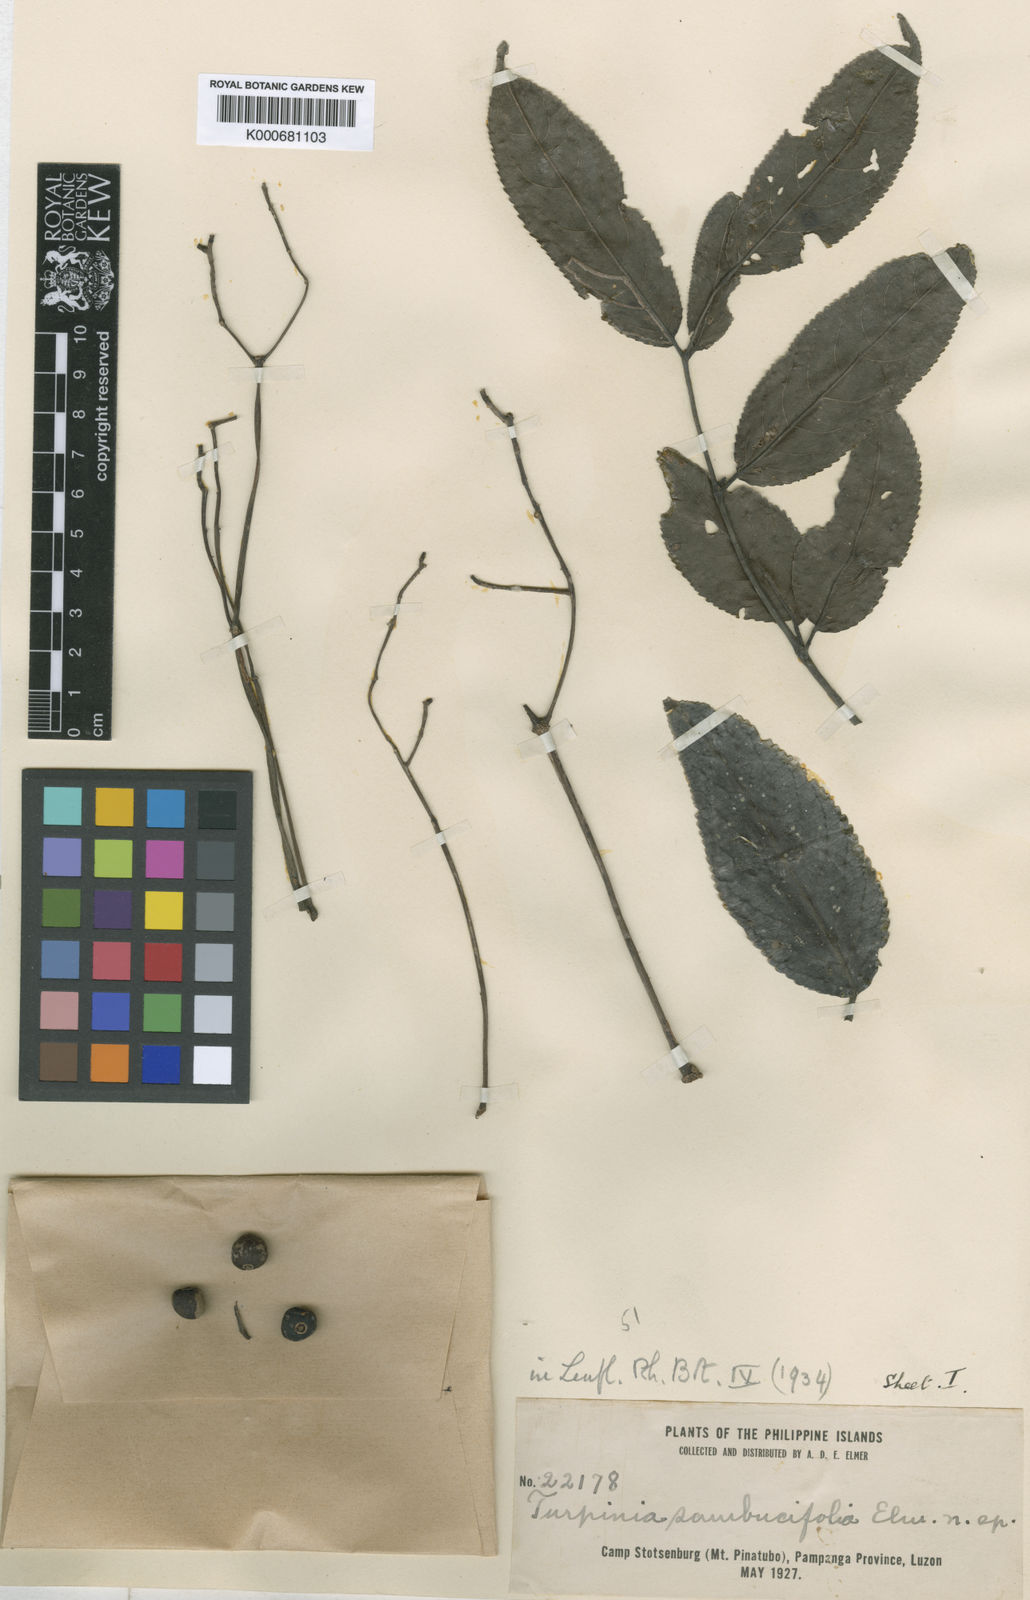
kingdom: Plantae
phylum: Tracheophyta
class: Magnoliopsida
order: Crossosomatales
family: Staphyleaceae
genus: Dalrympelea
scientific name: Dalrympelea sphaerocarpa
